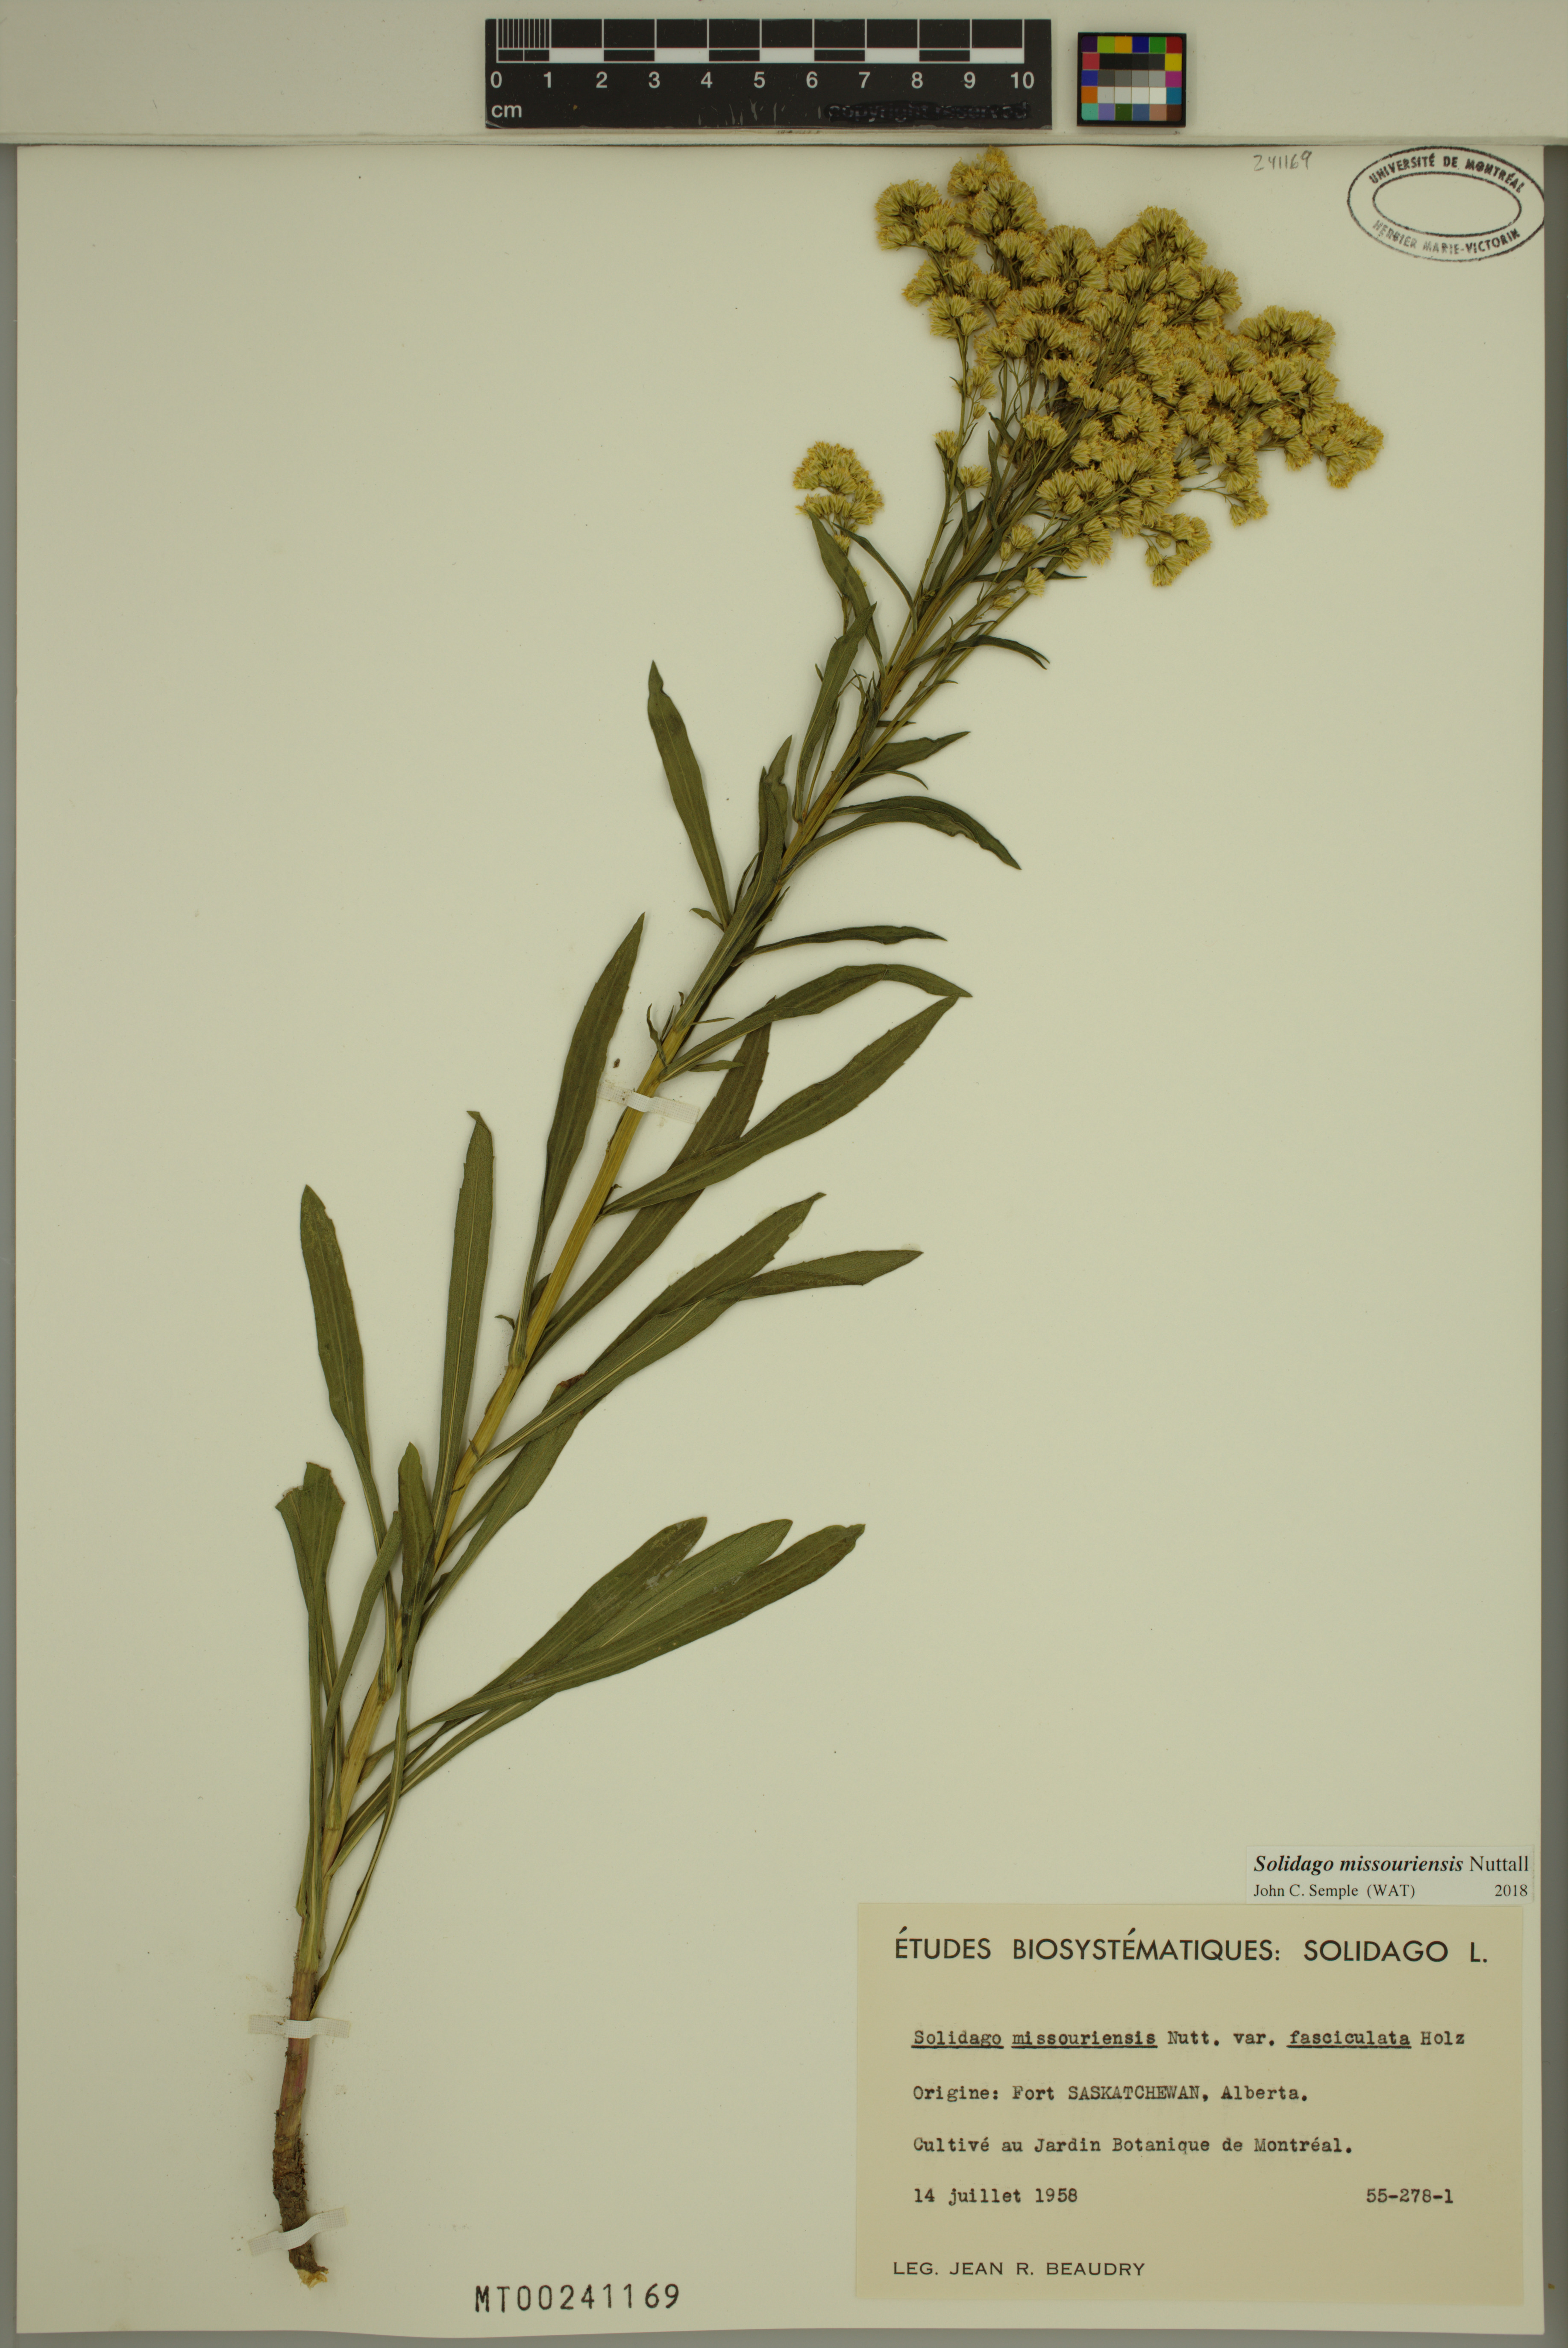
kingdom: Plantae
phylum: Tracheophyta
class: Magnoliopsida
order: Asterales
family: Asteraceae
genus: Solidago
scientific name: Solidago missouriensis
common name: Prairie goldenrod
